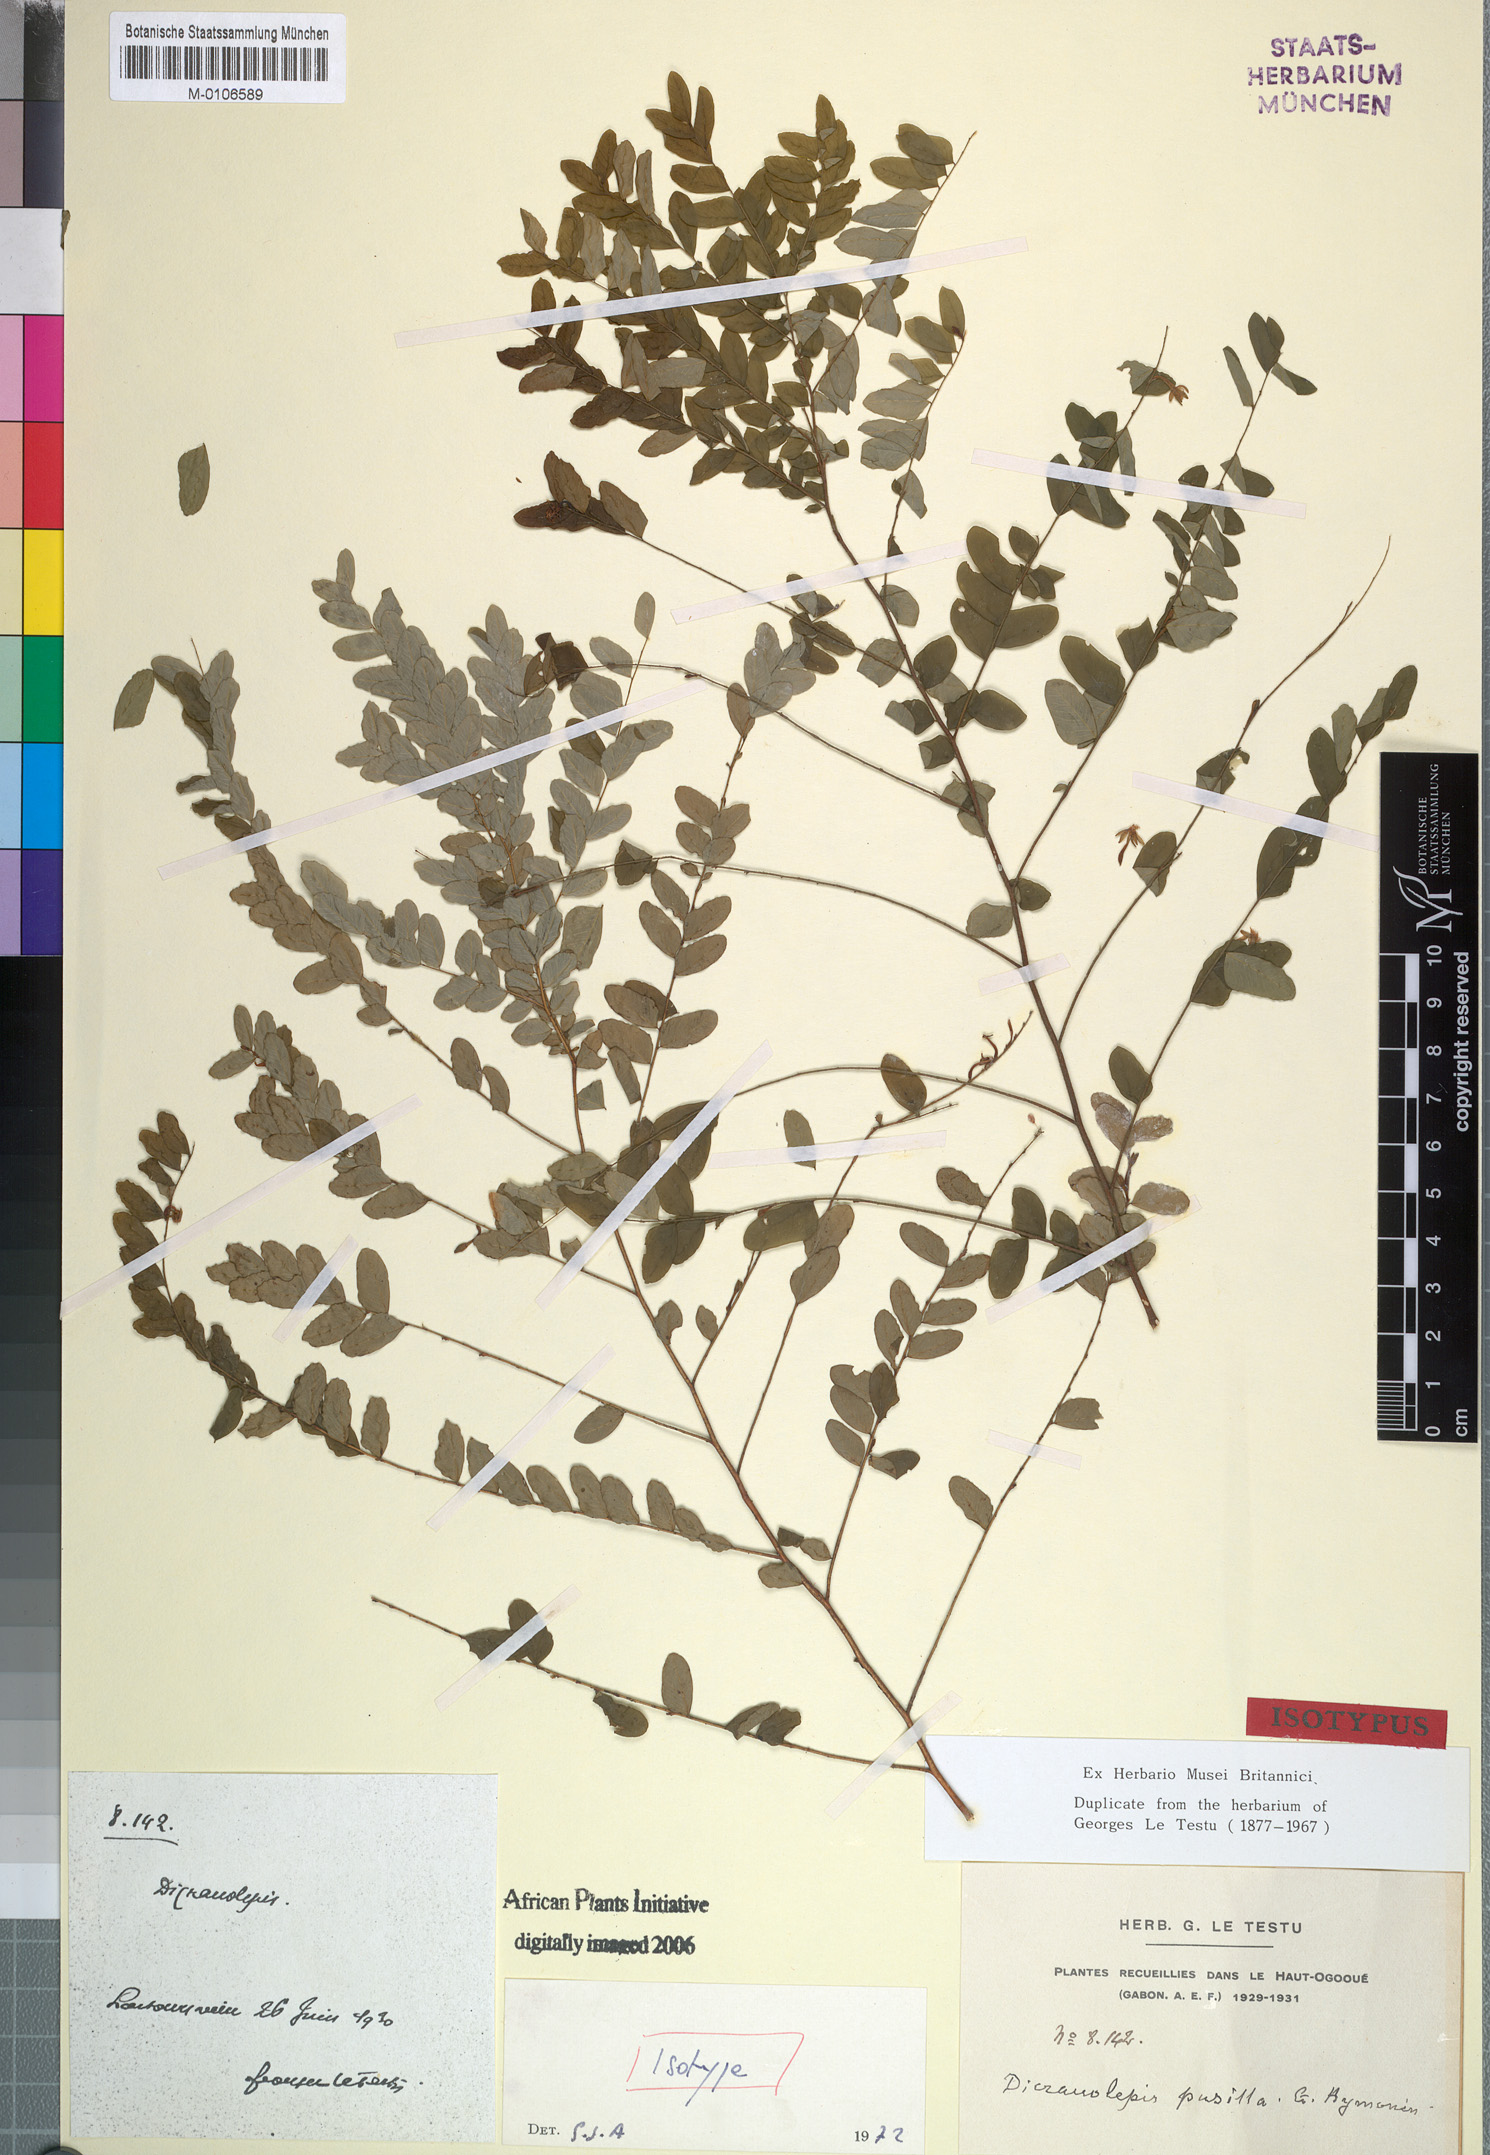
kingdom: Plantae
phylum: Tracheophyta
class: Magnoliopsida
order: Malvales
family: Thymelaeaceae
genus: Dicranolepis
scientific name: Dicranolepis pusilla
